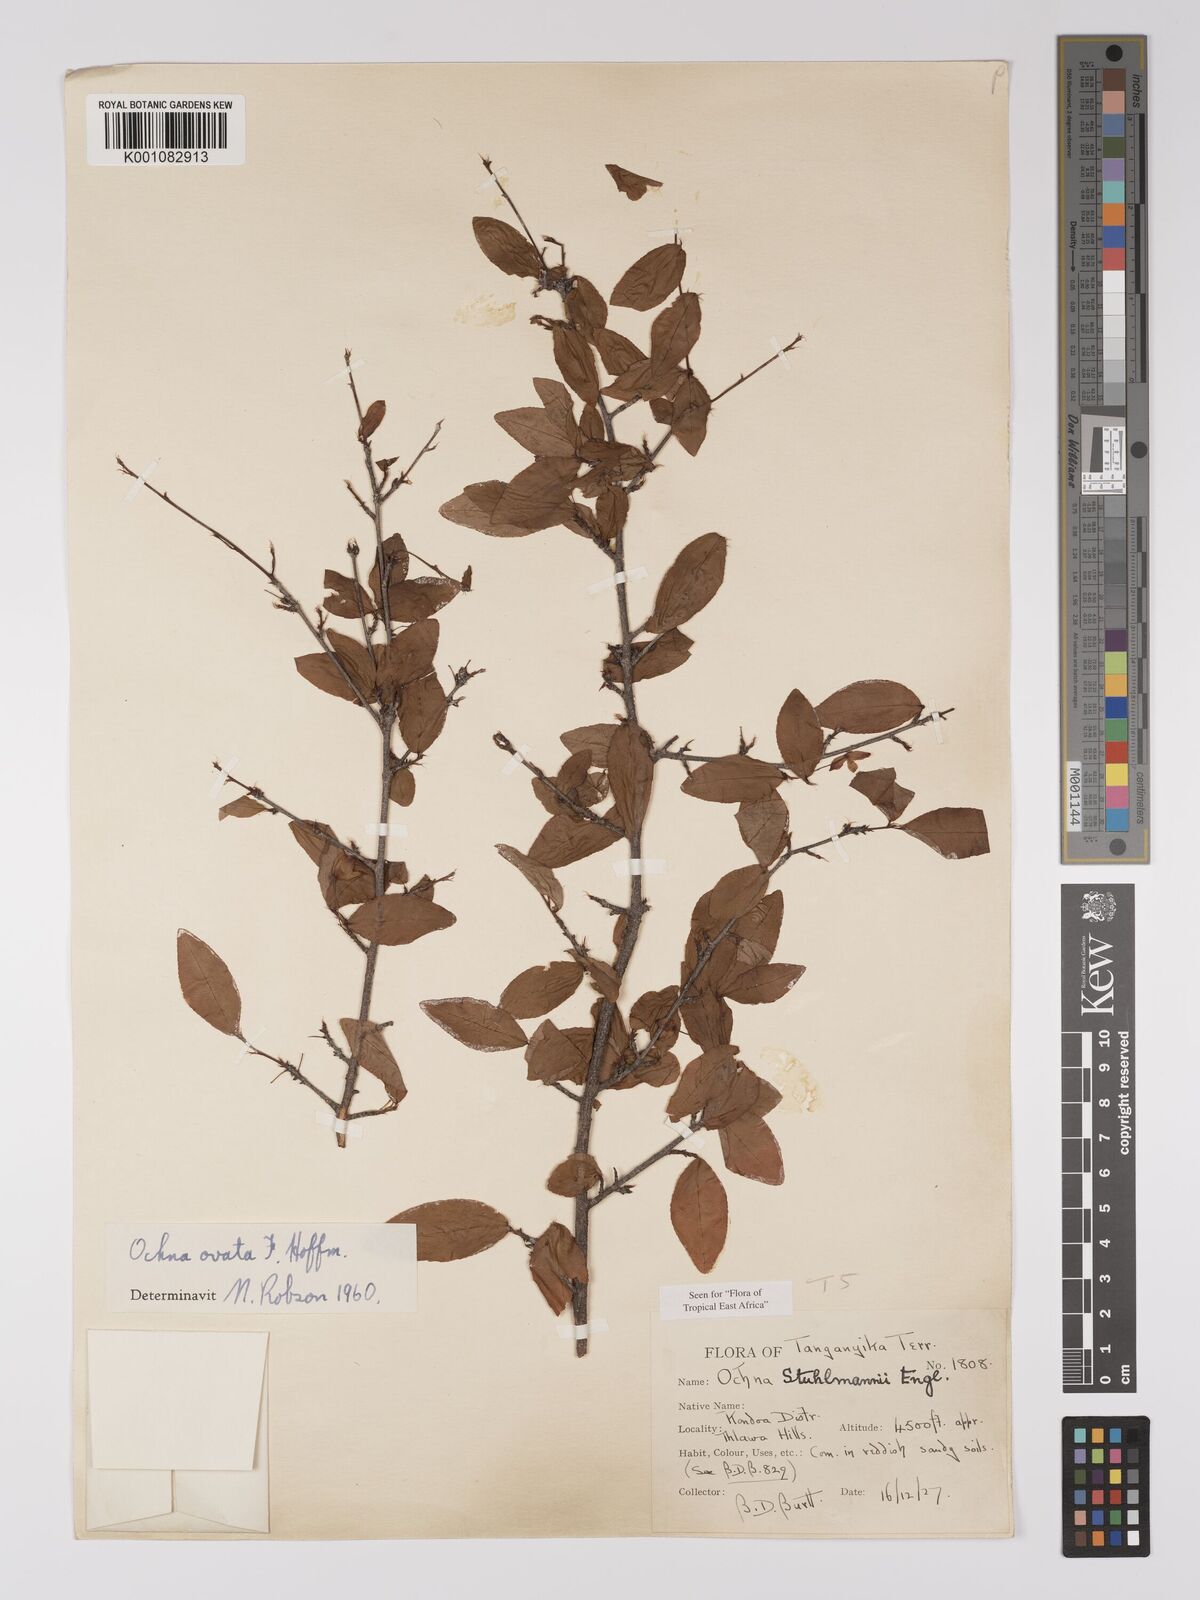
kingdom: Plantae
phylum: Tracheophyta
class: Magnoliopsida
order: Malpighiales
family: Ochnaceae
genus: Ochna
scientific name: Ochna ovata
